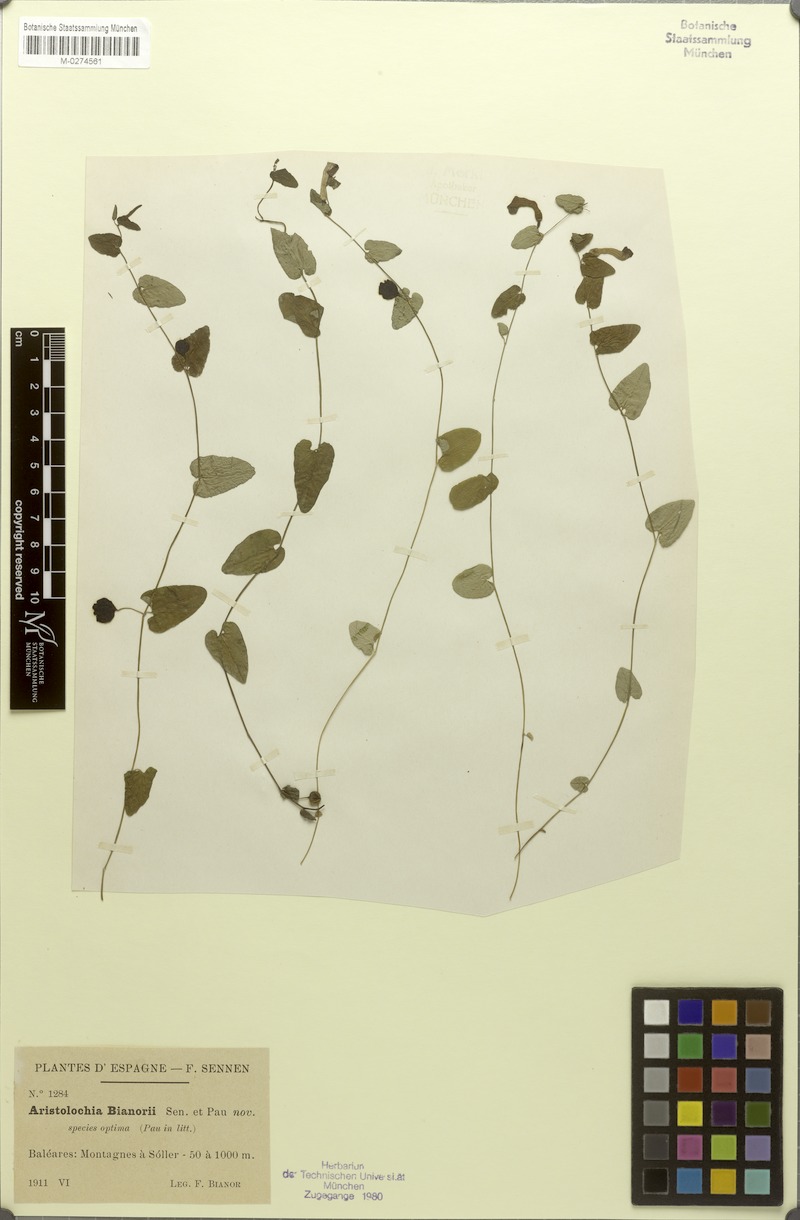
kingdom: Plantae
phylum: Tracheophyta
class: Magnoliopsida
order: Piperales
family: Aristolochiaceae
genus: Aristolochia
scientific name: Aristolochia bianorii
